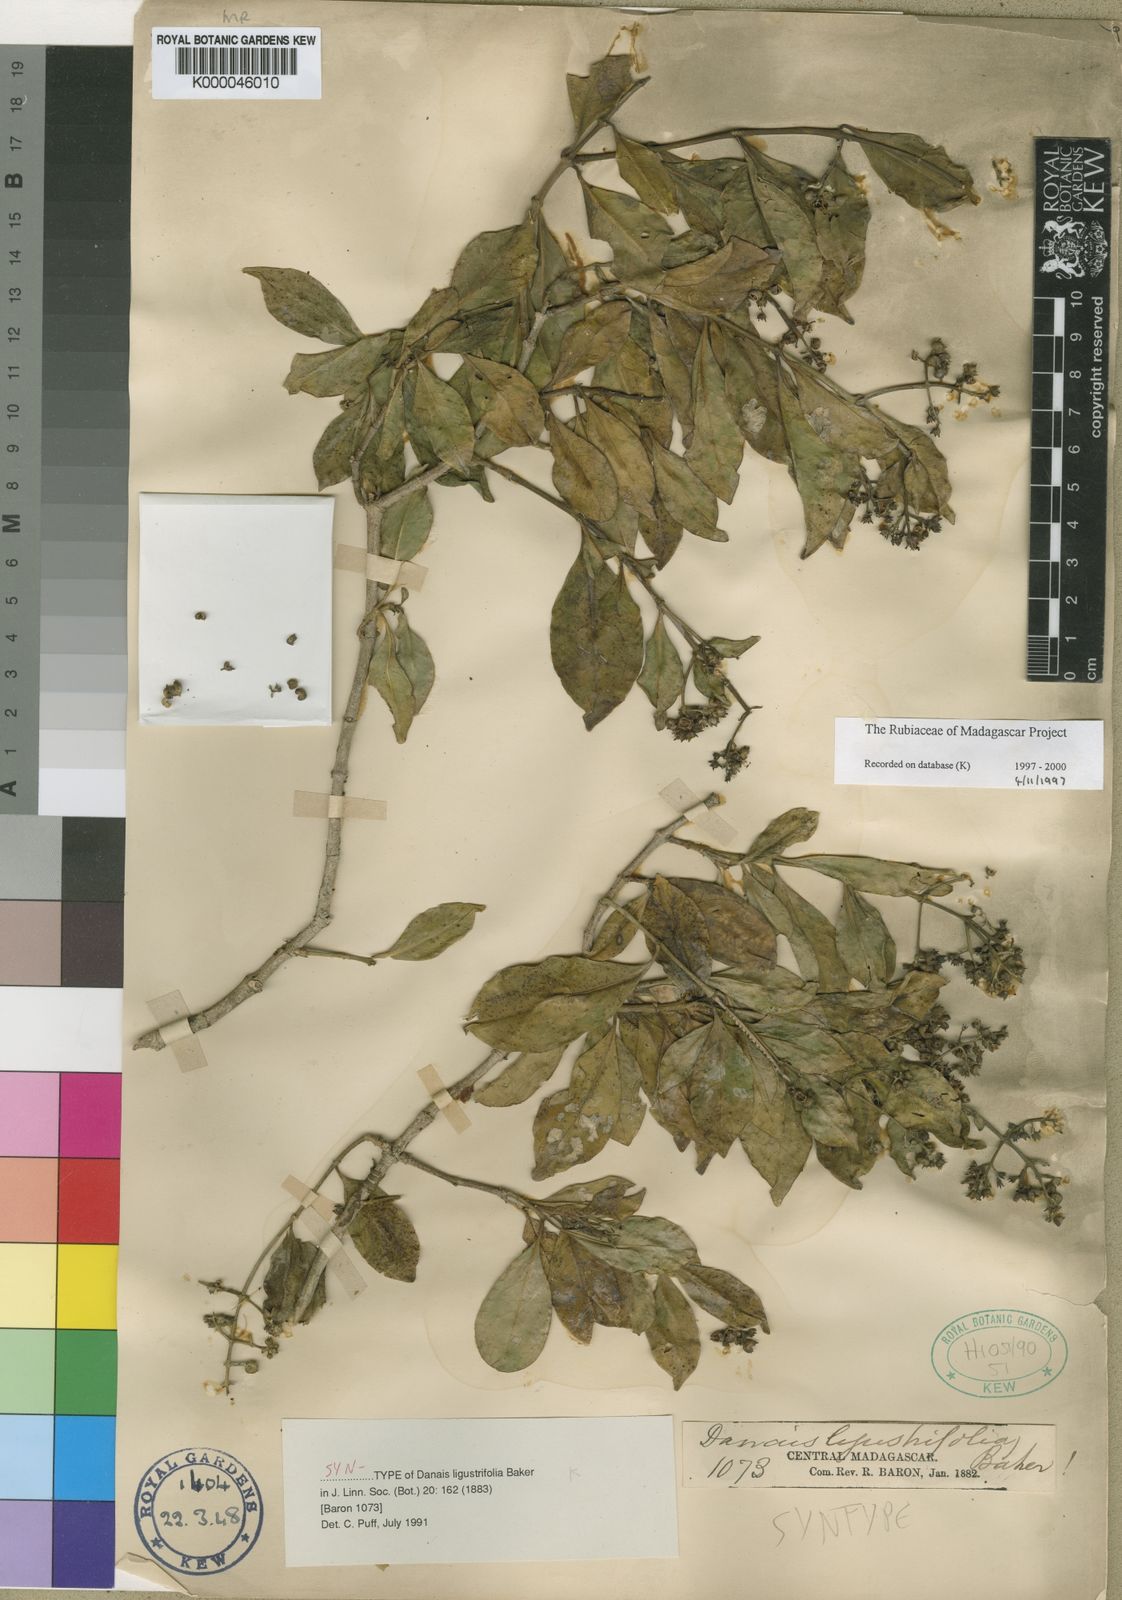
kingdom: Plantae
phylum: Tracheophyta
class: Magnoliopsida
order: Gentianales
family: Rubiaceae
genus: Danais
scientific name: Danais ligustrifolia
